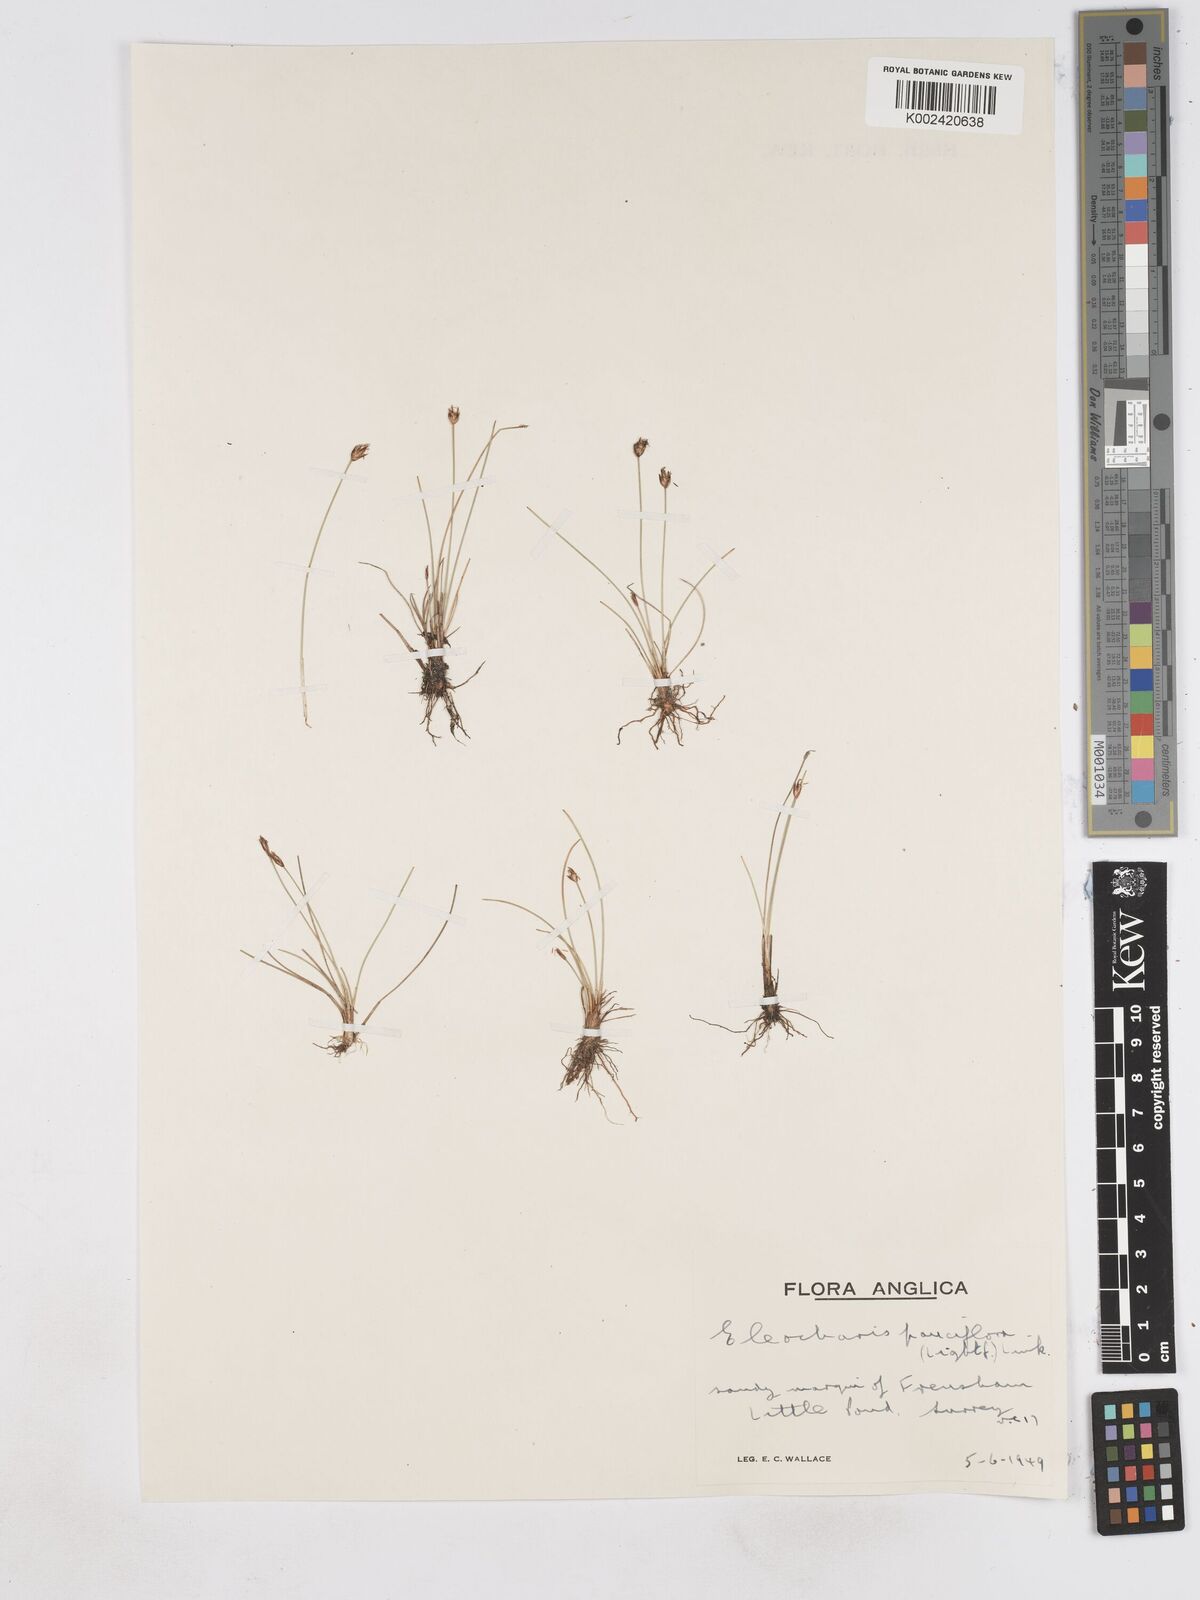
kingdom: Plantae
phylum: Tracheophyta
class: Liliopsida
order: Poales
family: Cyperaceae
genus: Eleocharis
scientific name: Eleocharis quinqueflora
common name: Few-flowered spike-rush
